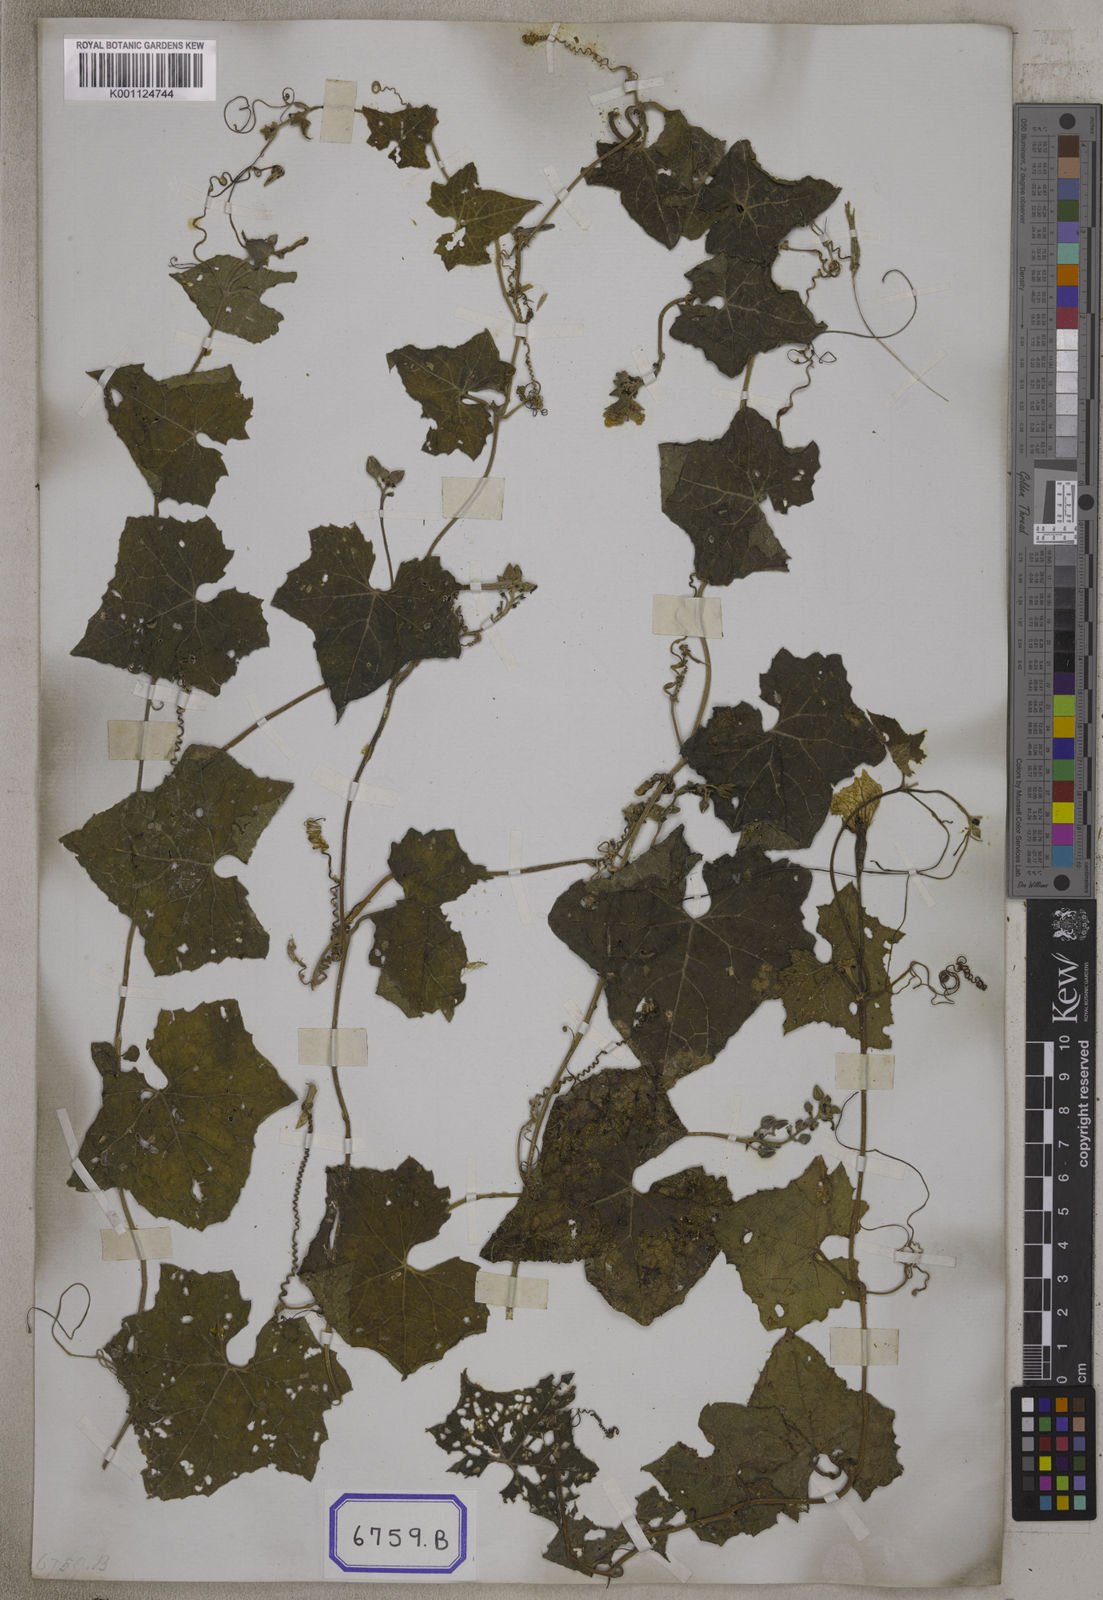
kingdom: Plantae
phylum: Tracheophyta
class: Magnoliopsida
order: Cucurbitales
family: Cucurbitaceae
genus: Luffa
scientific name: Luffa acutangula
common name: Sinkwa towelsponge
